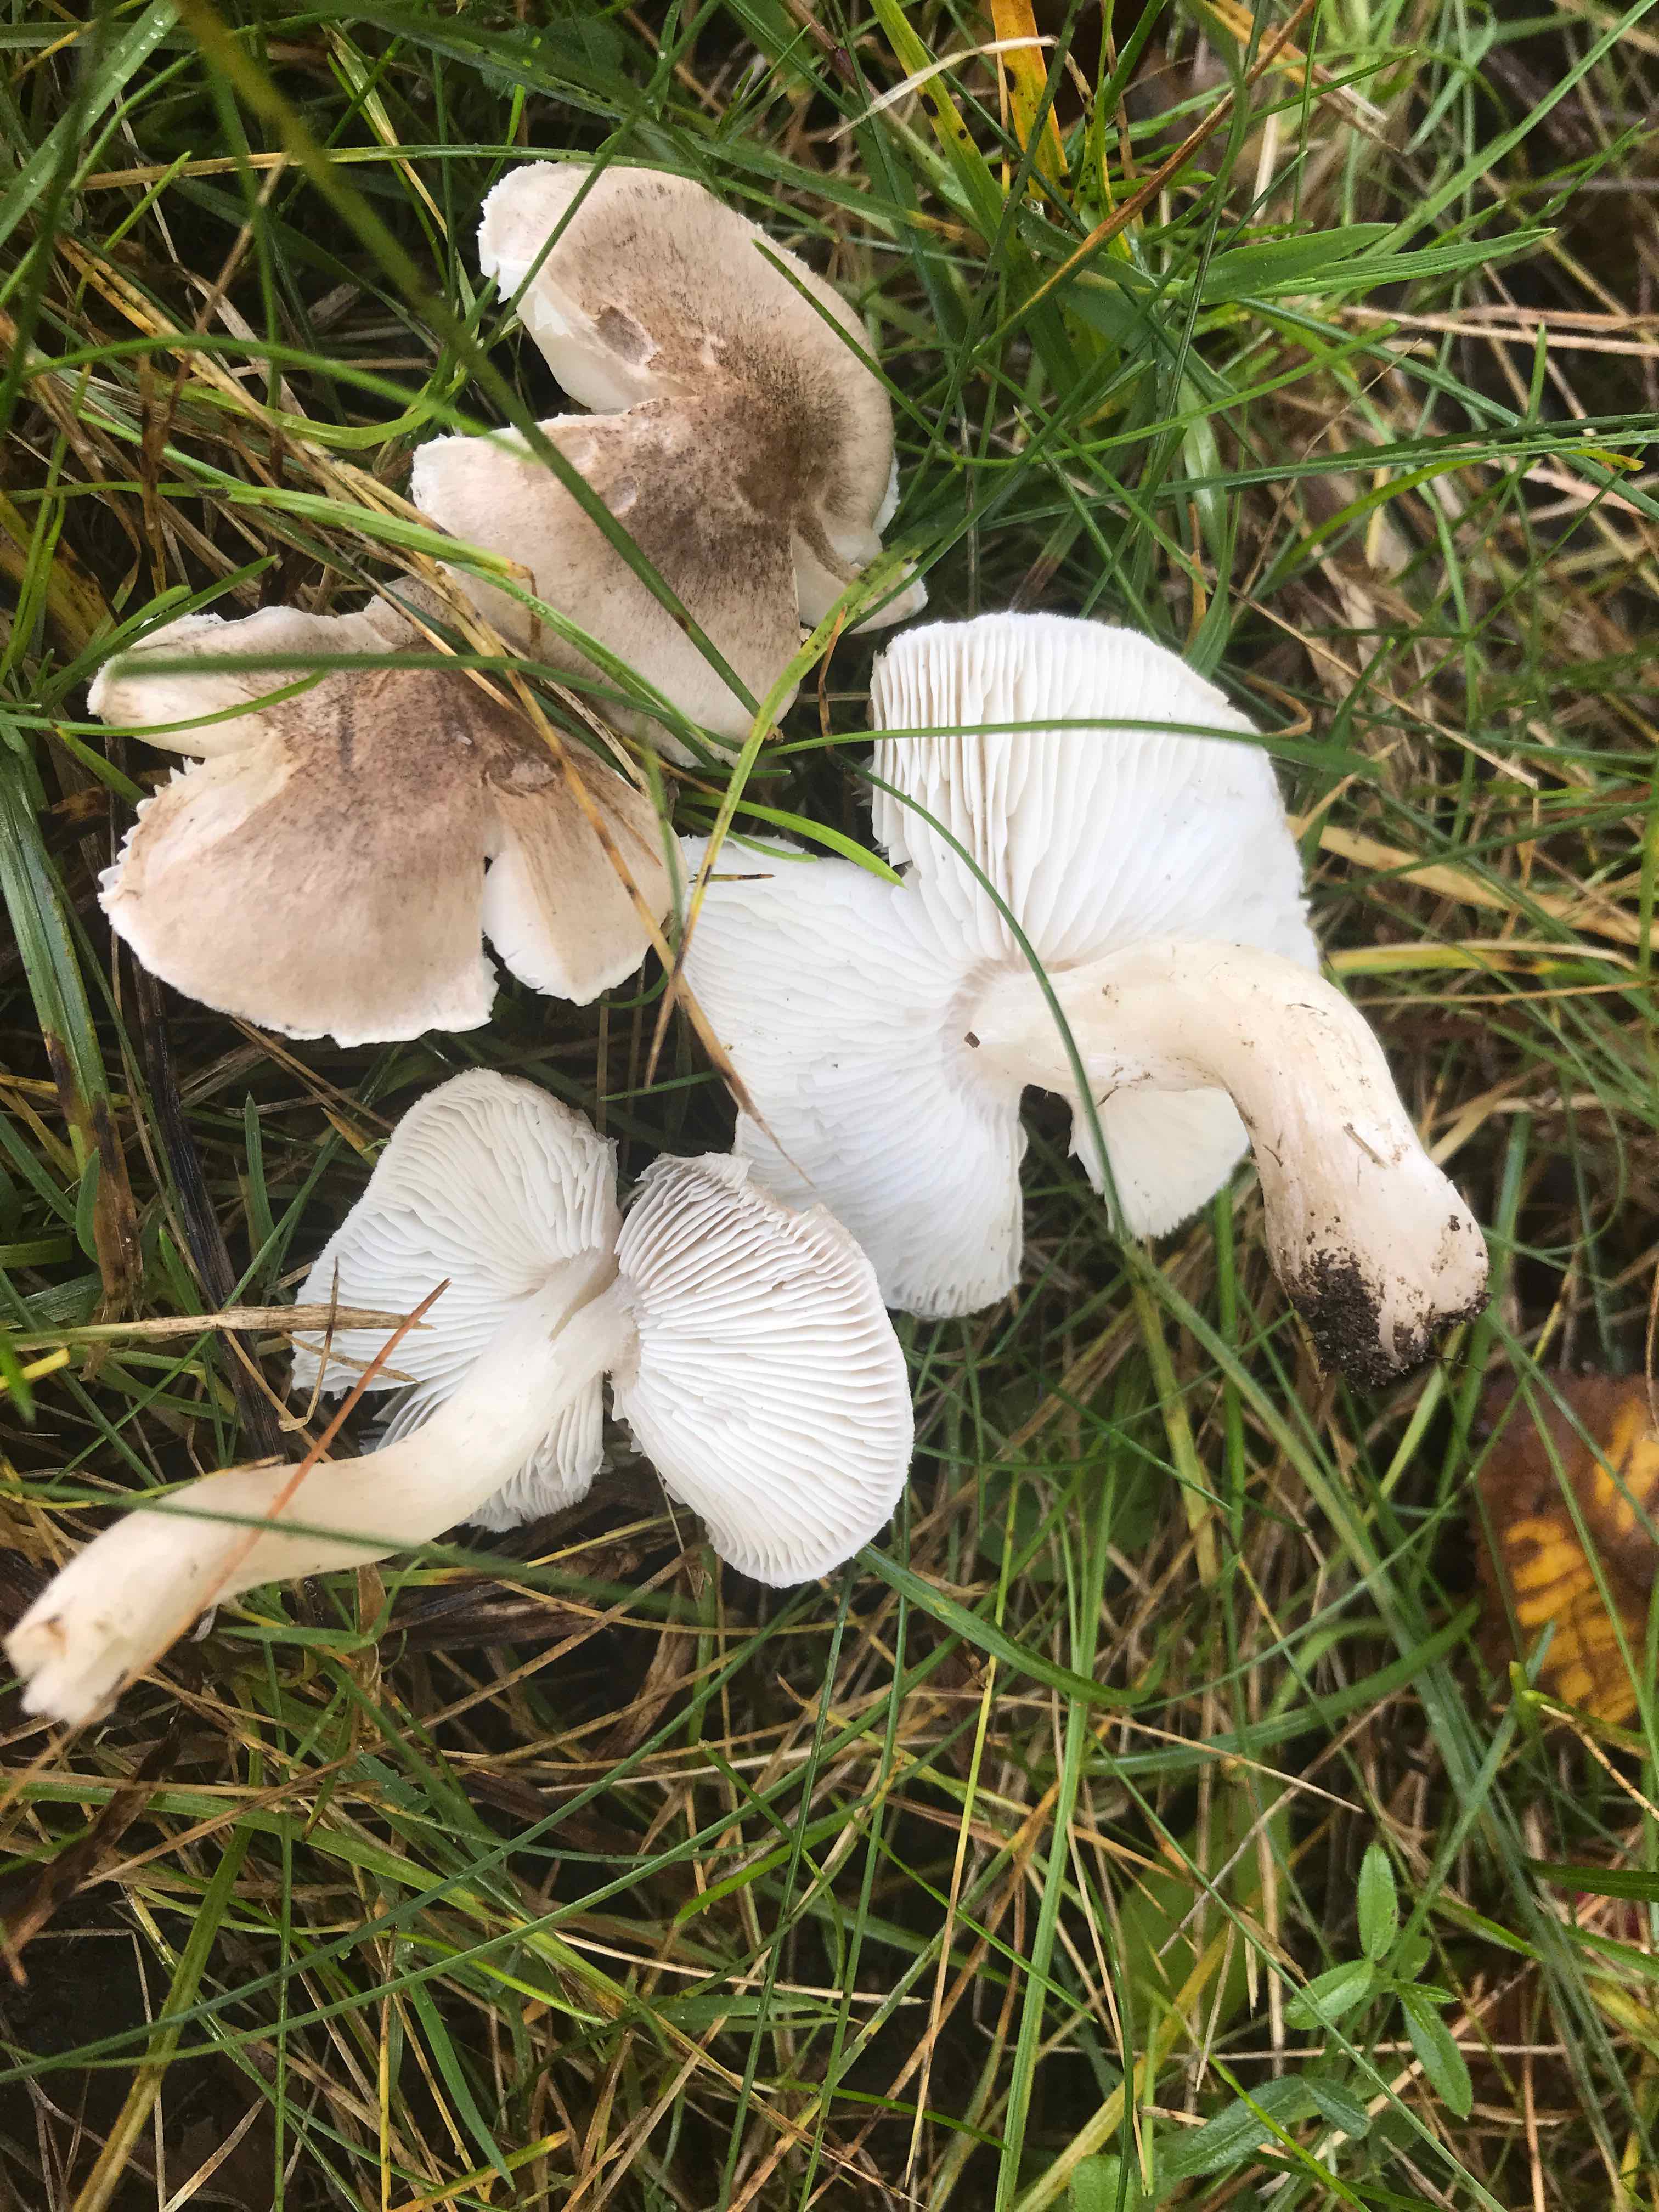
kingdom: Fungi
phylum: Basidiomycota
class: Agaricomycetes
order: Agaricales
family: Tricholomataceae
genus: Tricholoma
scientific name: Tricholoma argyraceum
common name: spids ridderhat
